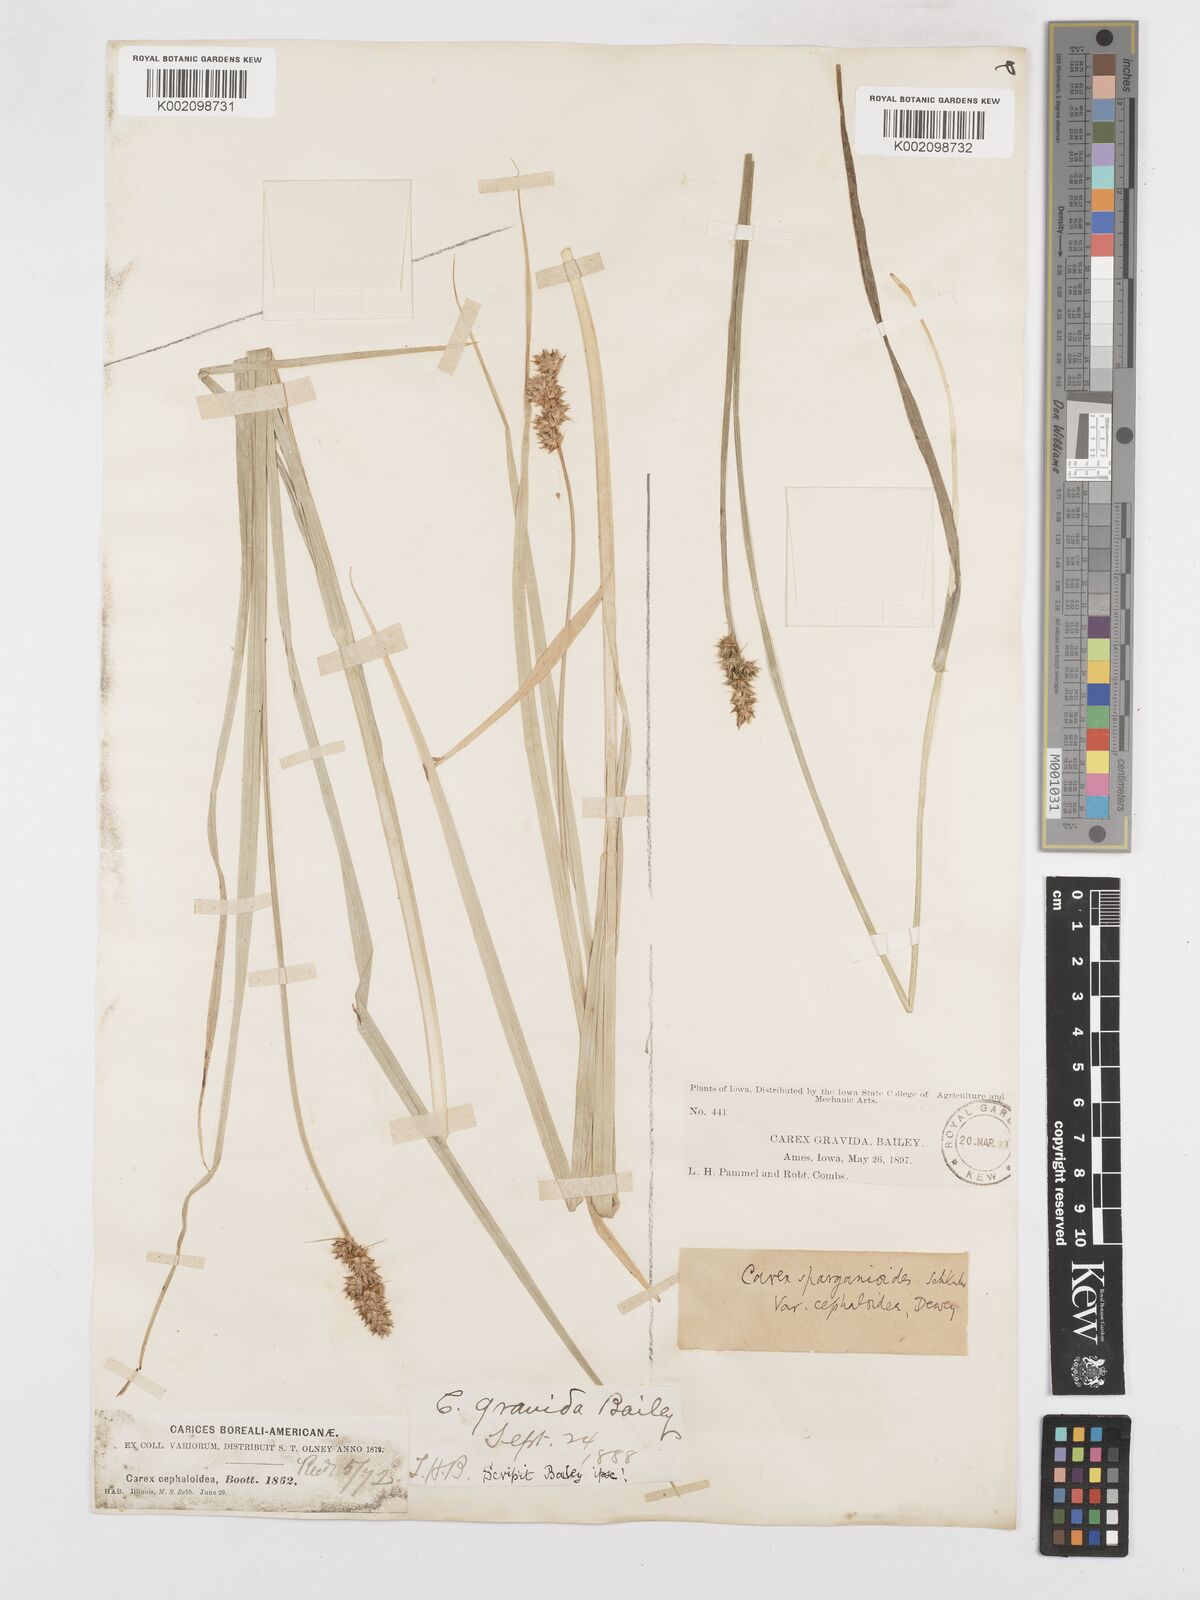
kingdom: Plantae
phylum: Tracheophyta
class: Liliopsida
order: Poales
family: Cyperaceae
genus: Carex
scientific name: Carex cephaloidea
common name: Thin-leaved sedge
